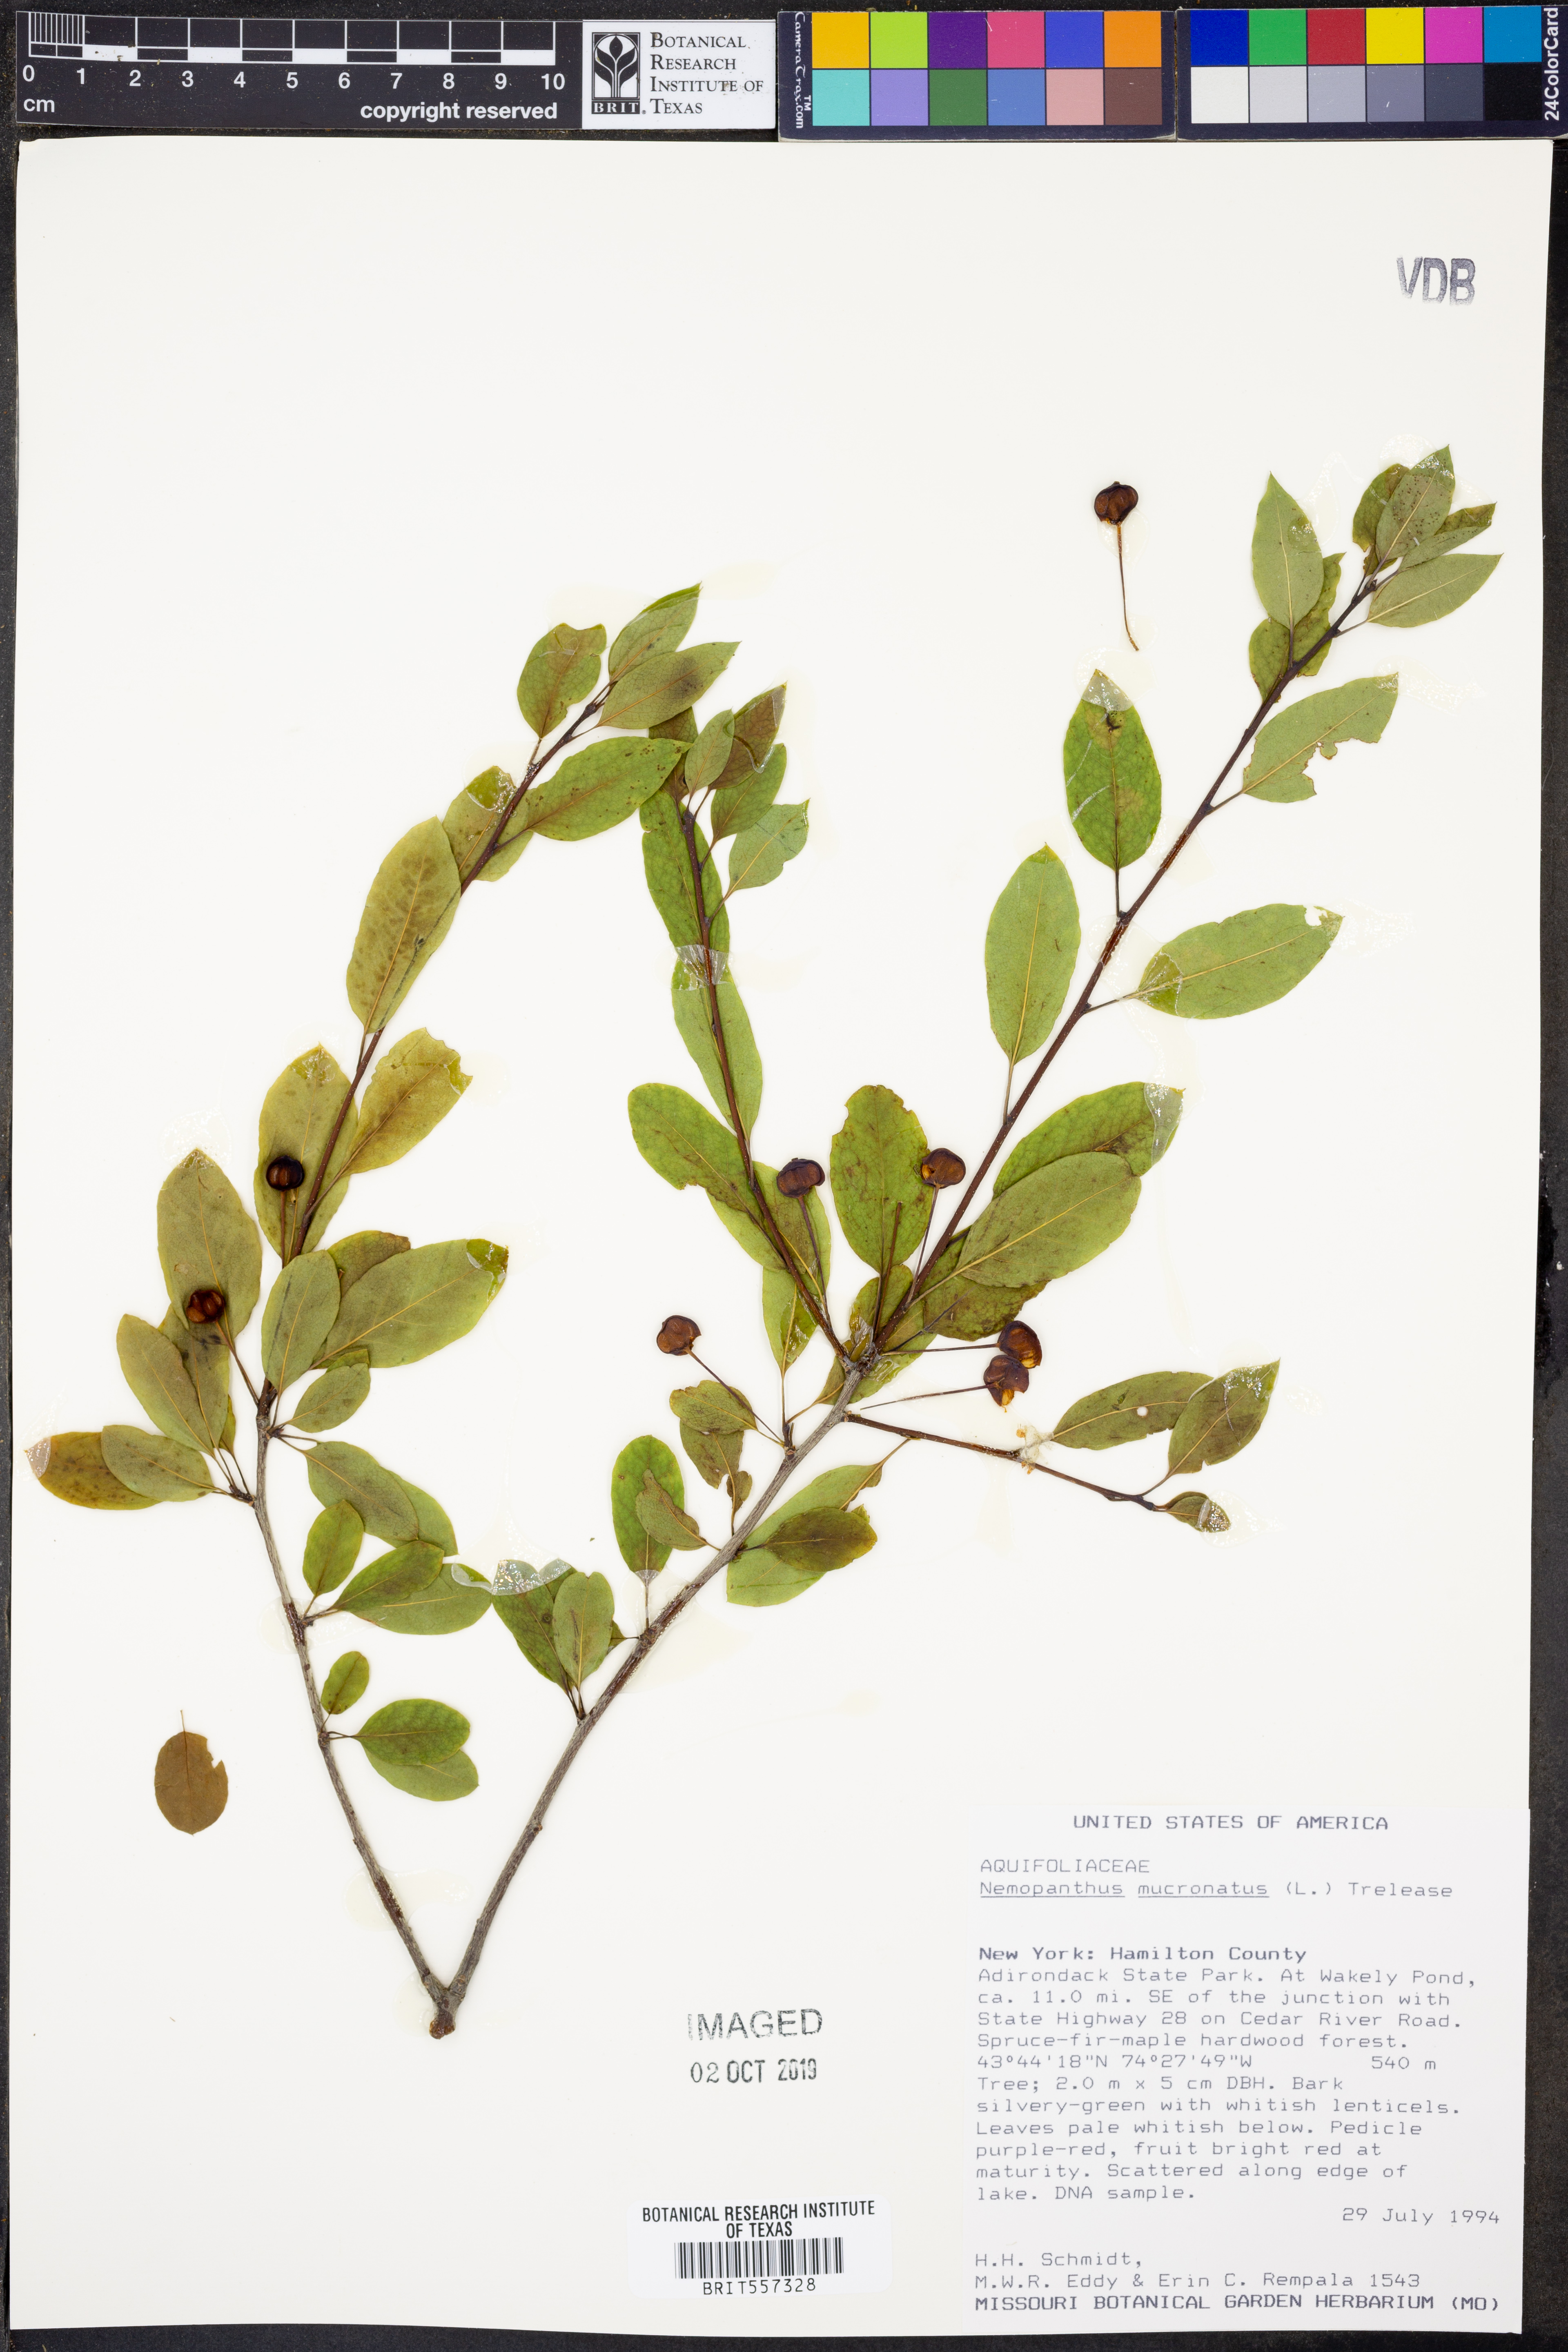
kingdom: Plantae
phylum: Tracheophyta
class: Magnoliopsida
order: Aquifoliales
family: Aquifoliaceae
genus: Ilex
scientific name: Ilex mucronata
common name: Catberry
